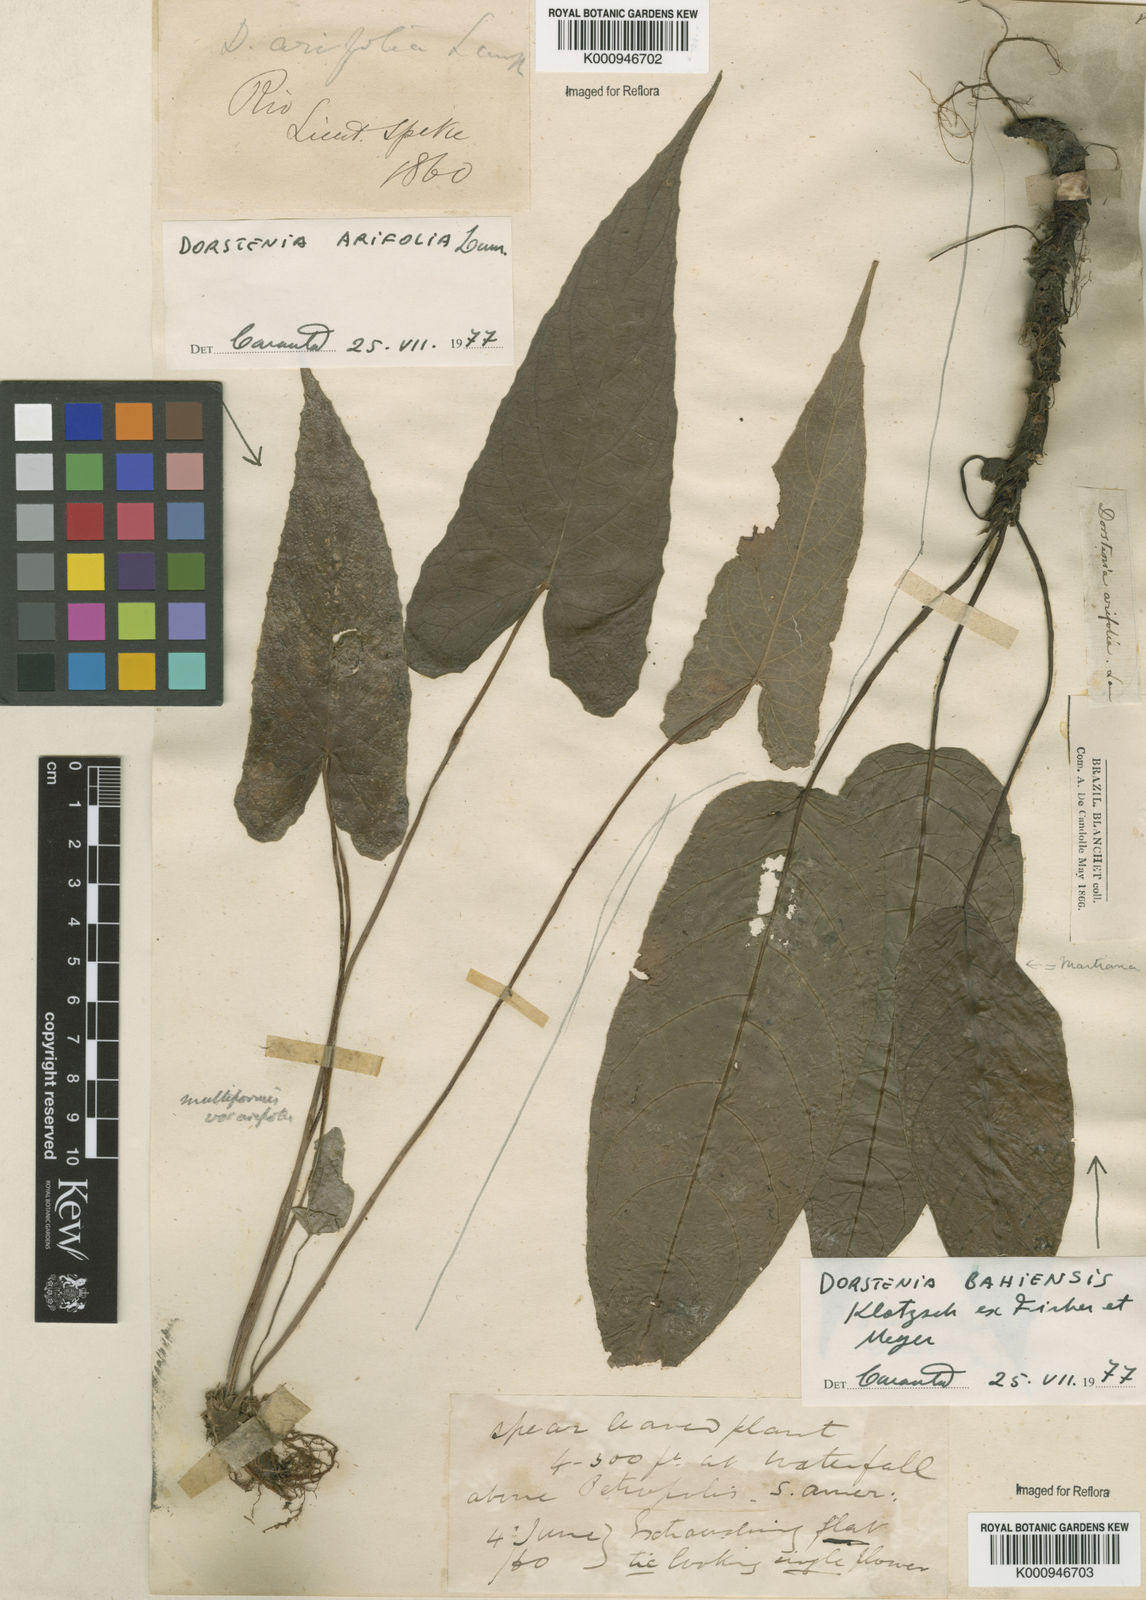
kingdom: Plantae
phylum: Tracheophyta
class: Magnoliopsida
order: Rosales
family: Moraceae
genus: Dorstenia
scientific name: Dorstenia bahiensis
